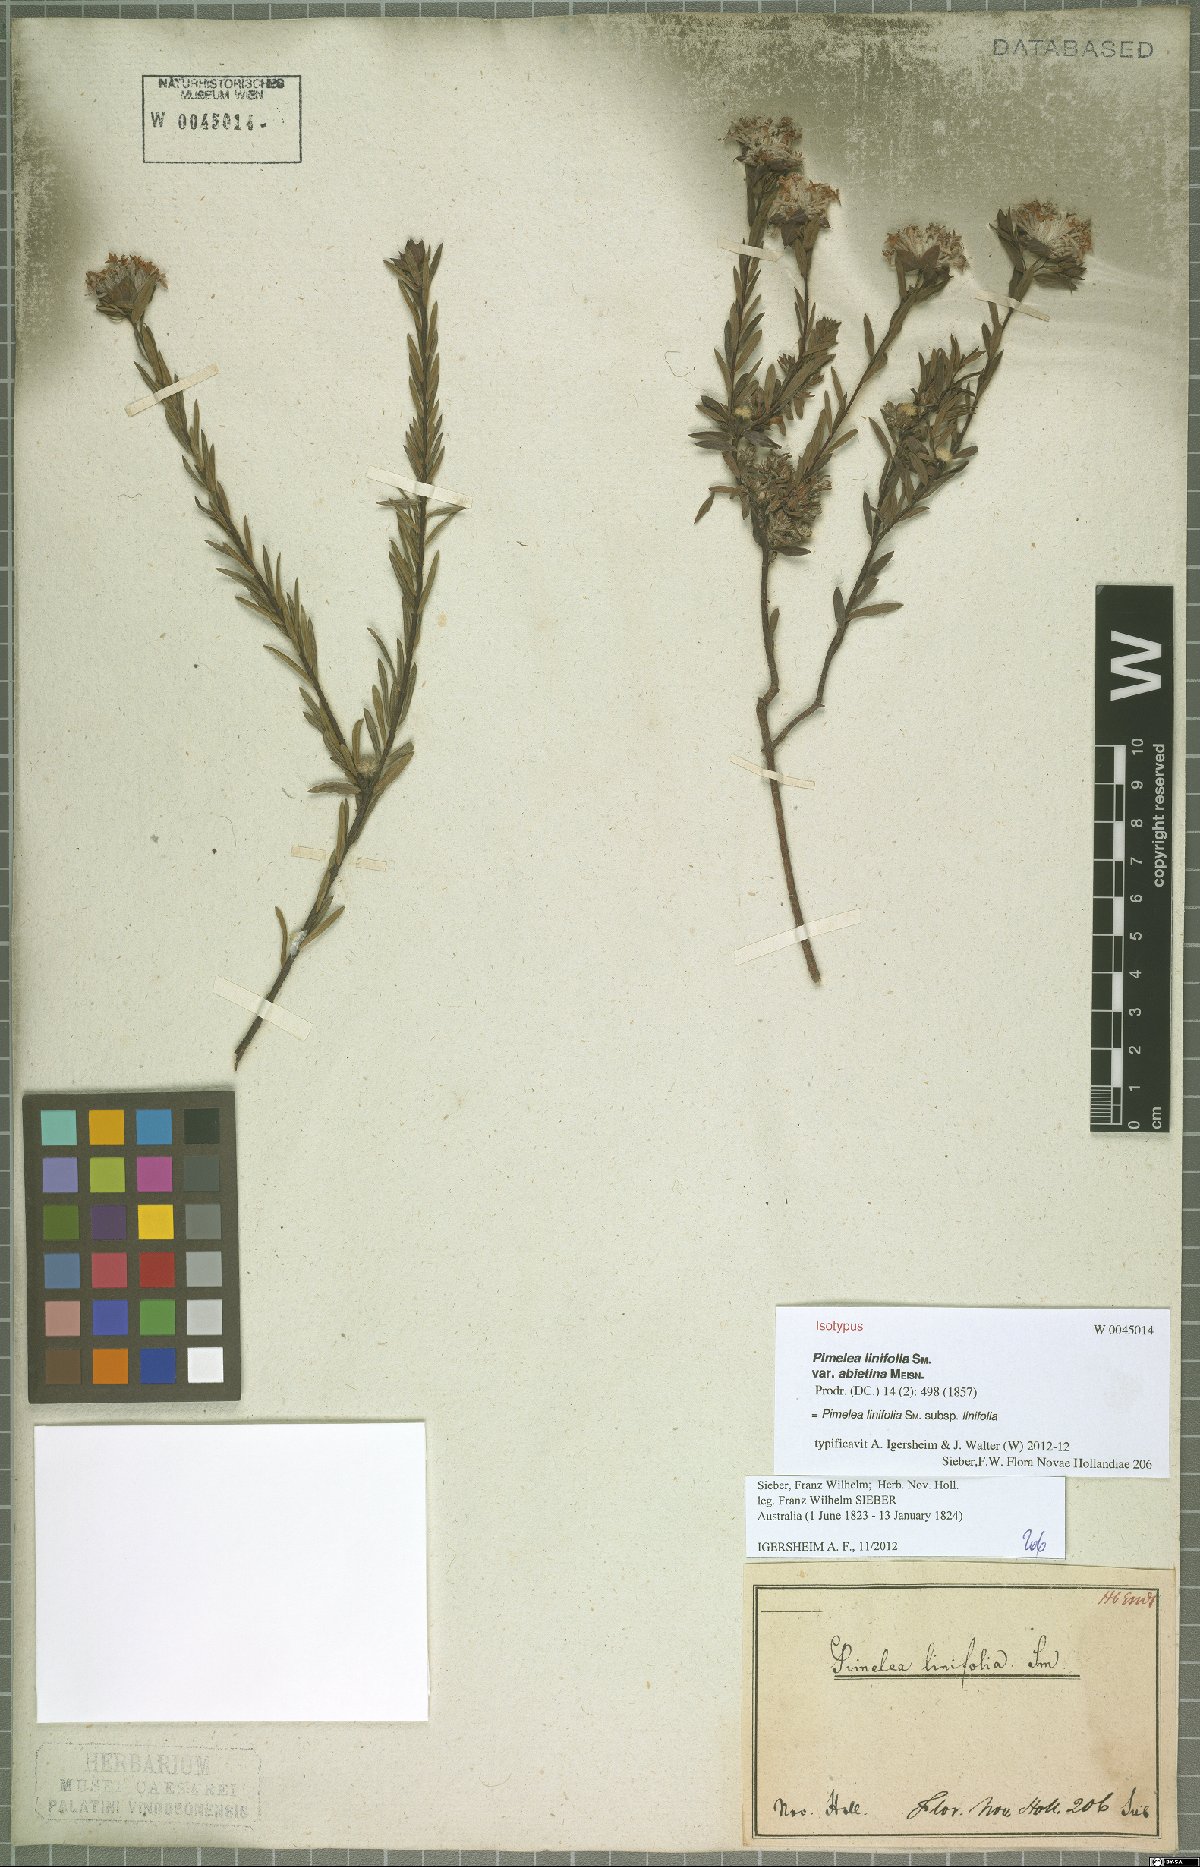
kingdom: Plantae
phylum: Tracheophyta
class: Magnoliopsida
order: Malvales
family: Thymelaeaceae
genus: Pimelea
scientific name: Pimelea linifolia
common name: Queen-of-the-bush
